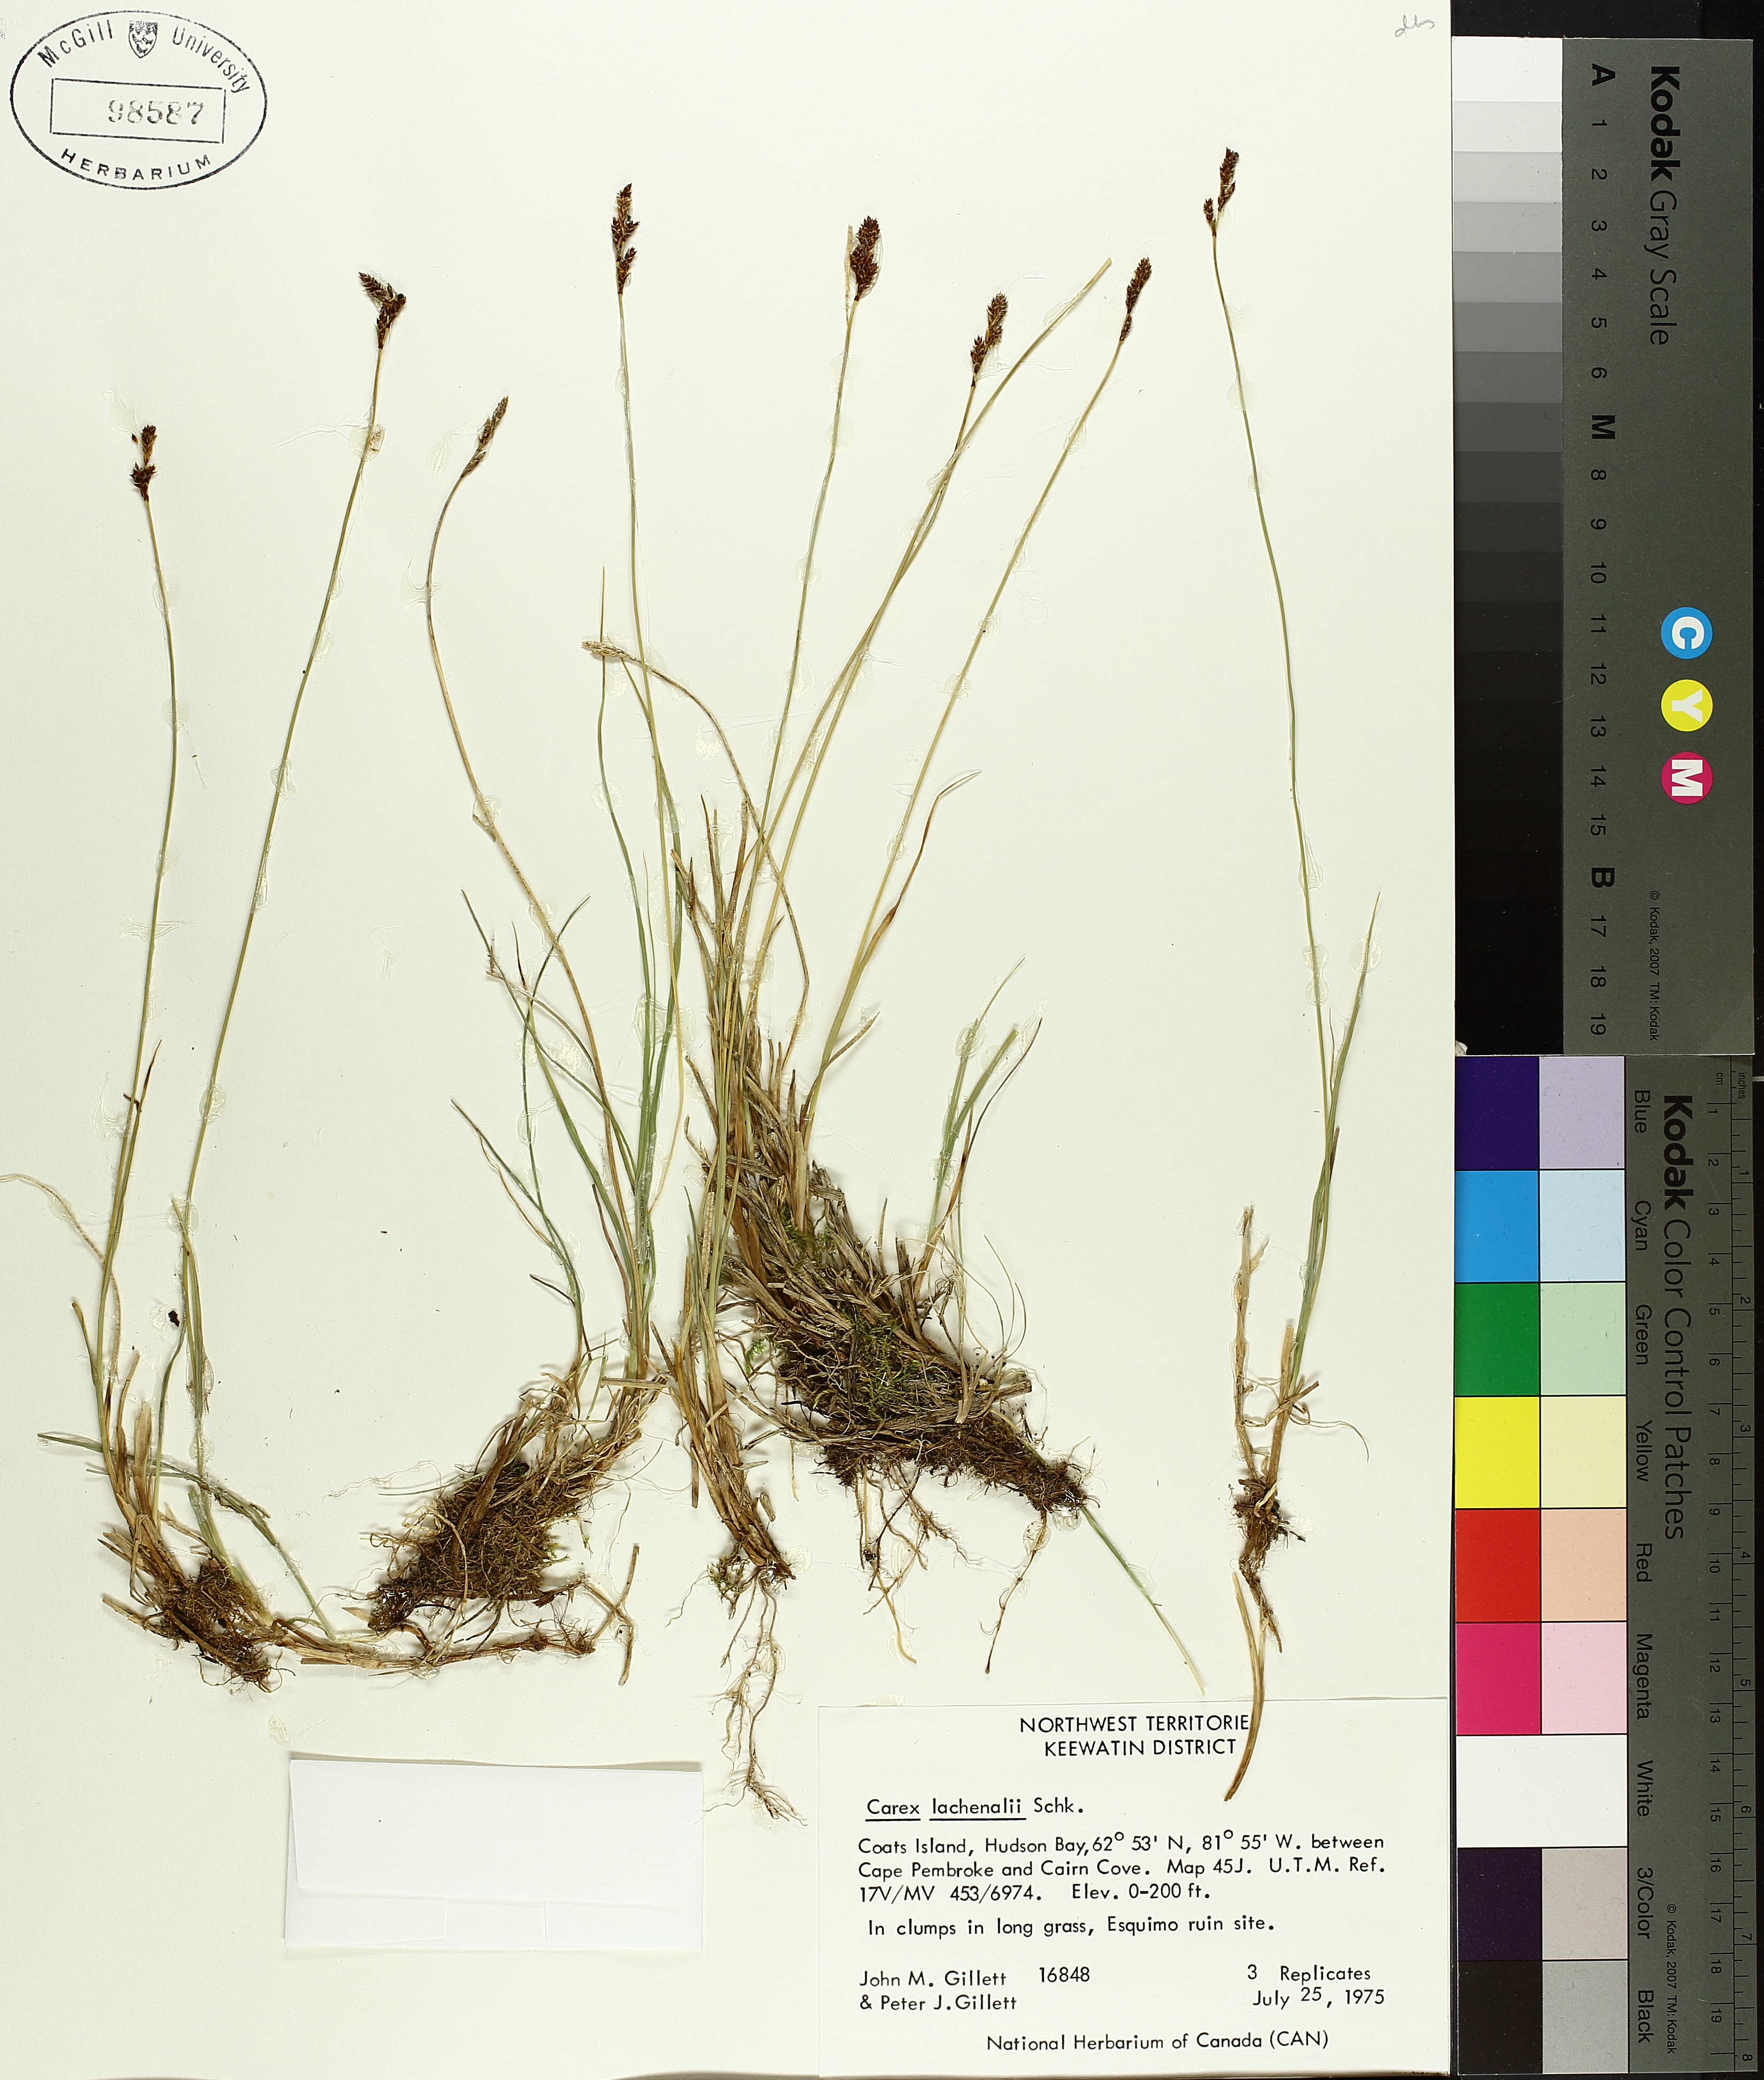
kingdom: Plantae
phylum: Tracheophyta
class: Liliopsida
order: Poales
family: Cyperaceae
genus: Carex
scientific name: Carex lachenalii
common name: Hare's-foot sedge
